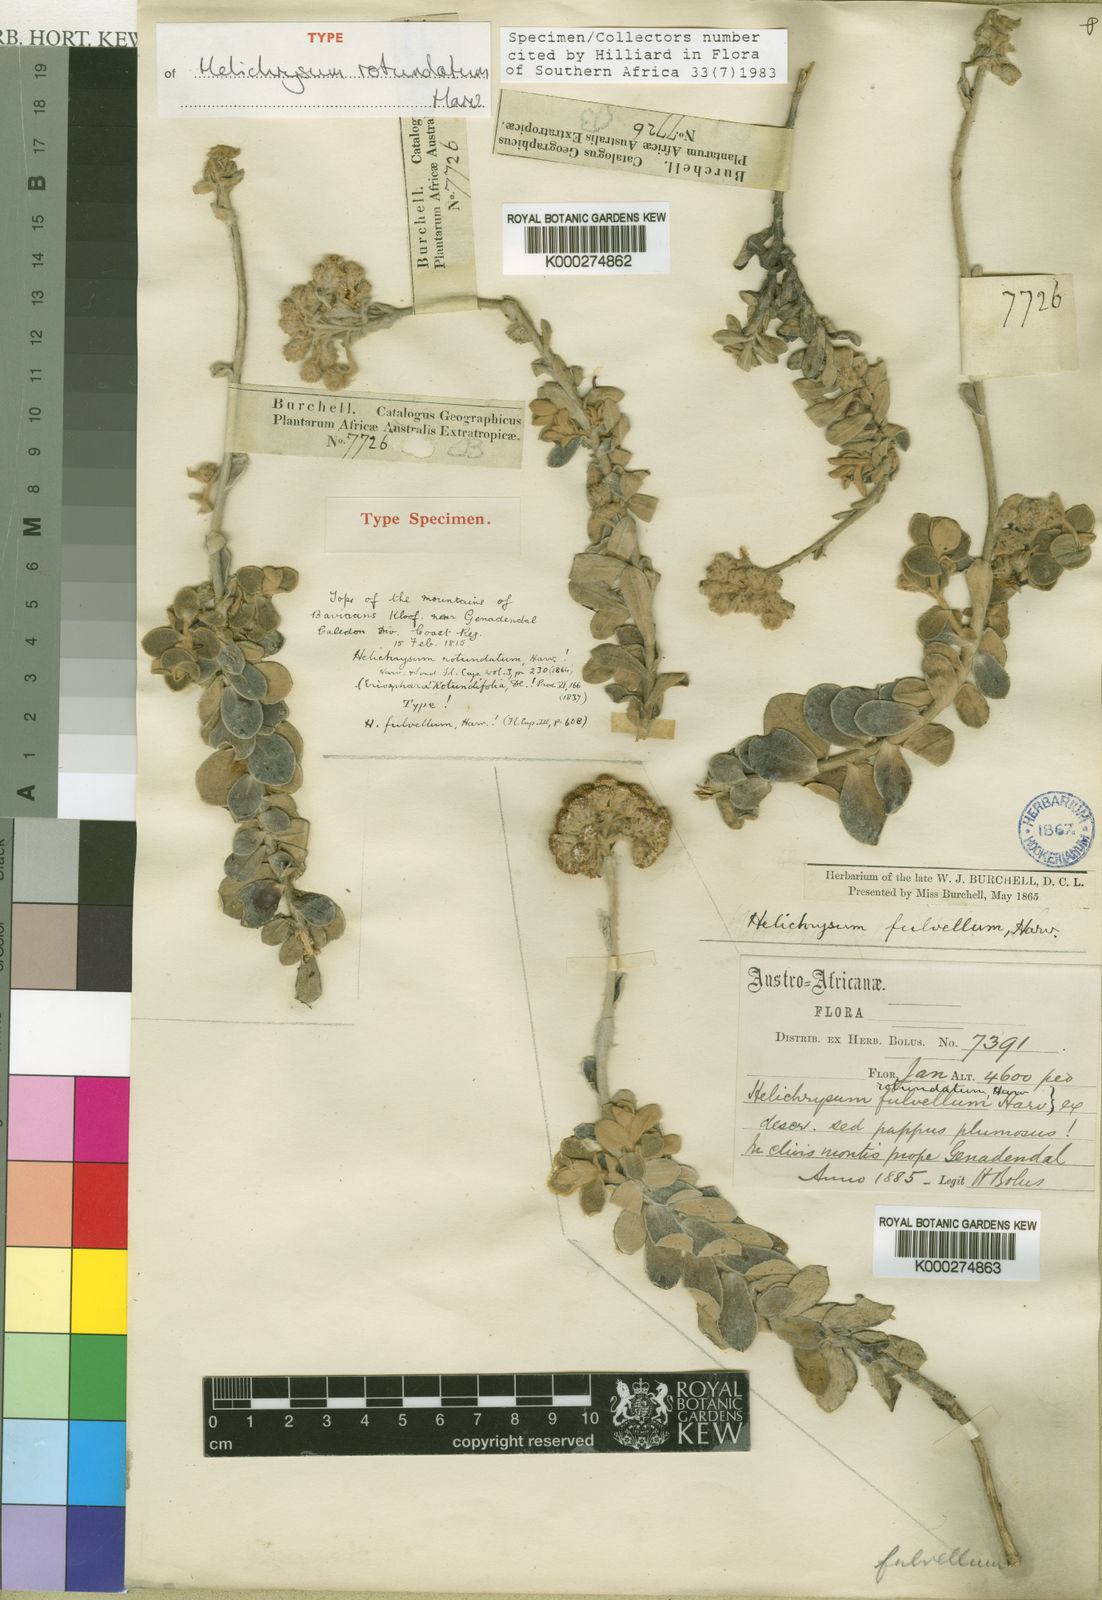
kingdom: Plantae
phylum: Tracheophyta
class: Magnoliopsida
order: Asterales
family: Asteraceae
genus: Helichrysum
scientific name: Helichrysum rotundatum
